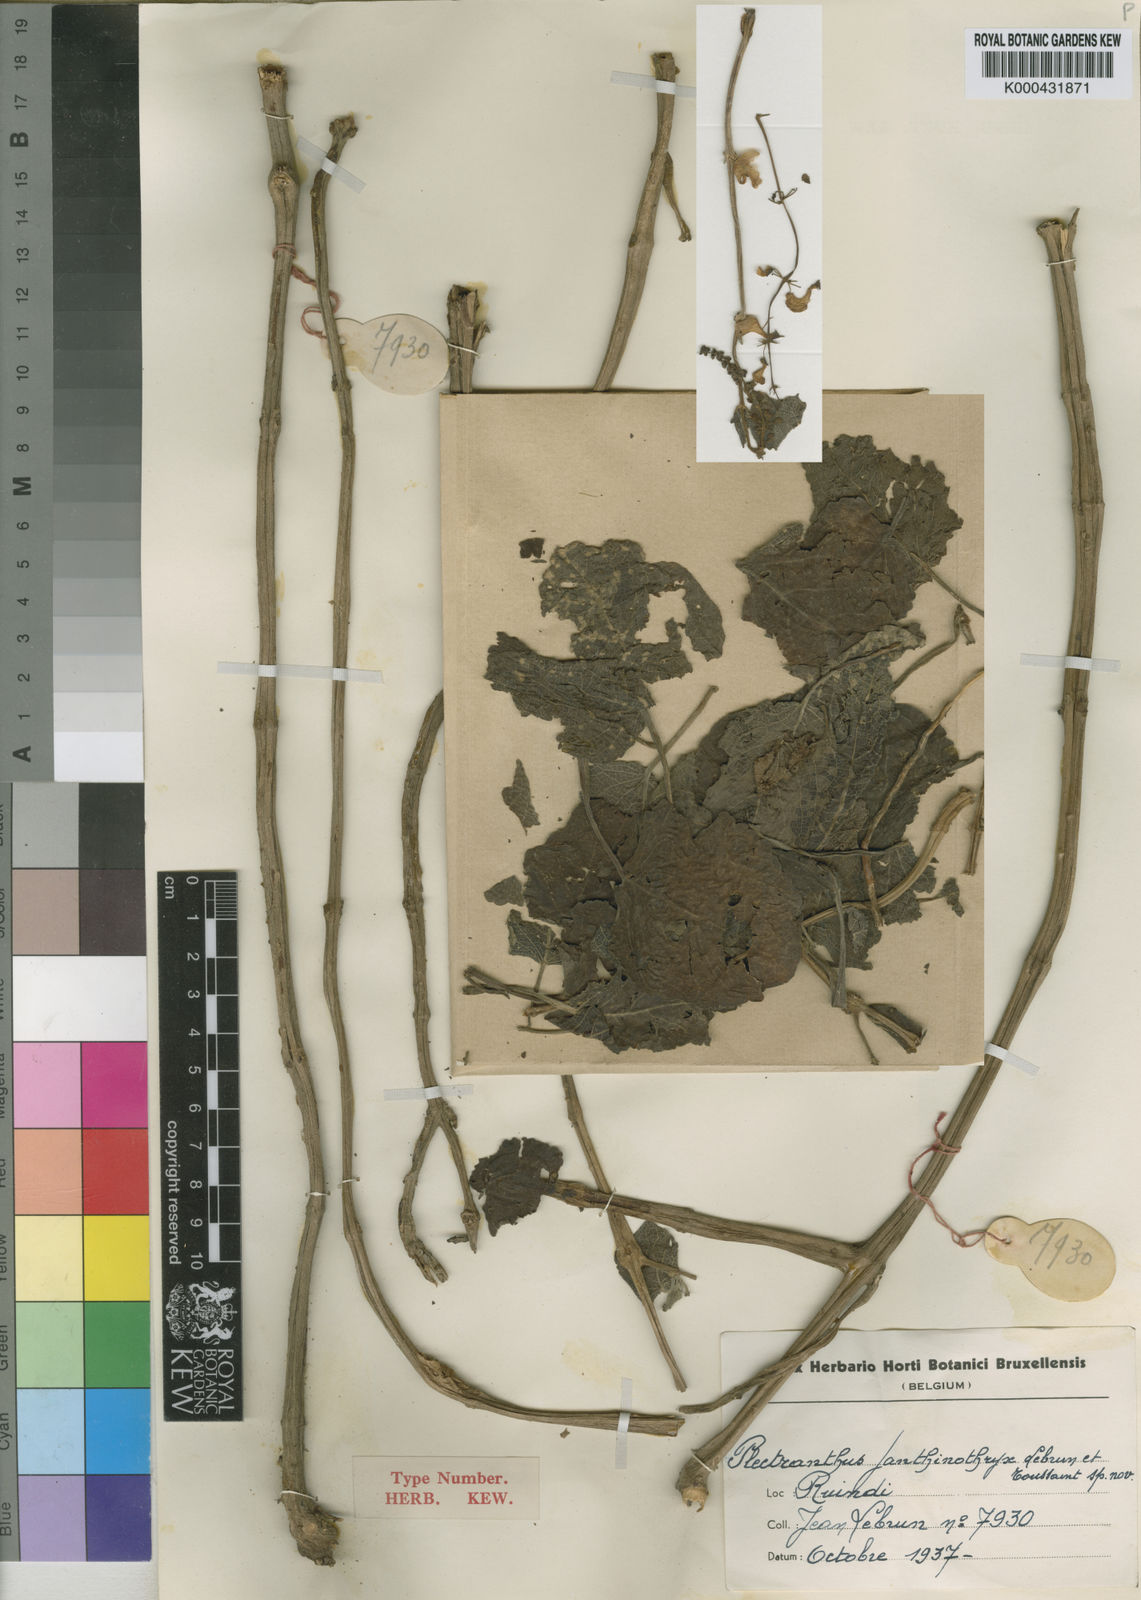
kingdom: Plantae
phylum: Tracheophyta
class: Magnoliopsida
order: Lamiales
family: Lamiaceae
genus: Equilabium
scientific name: Equilabium janthinothryx
